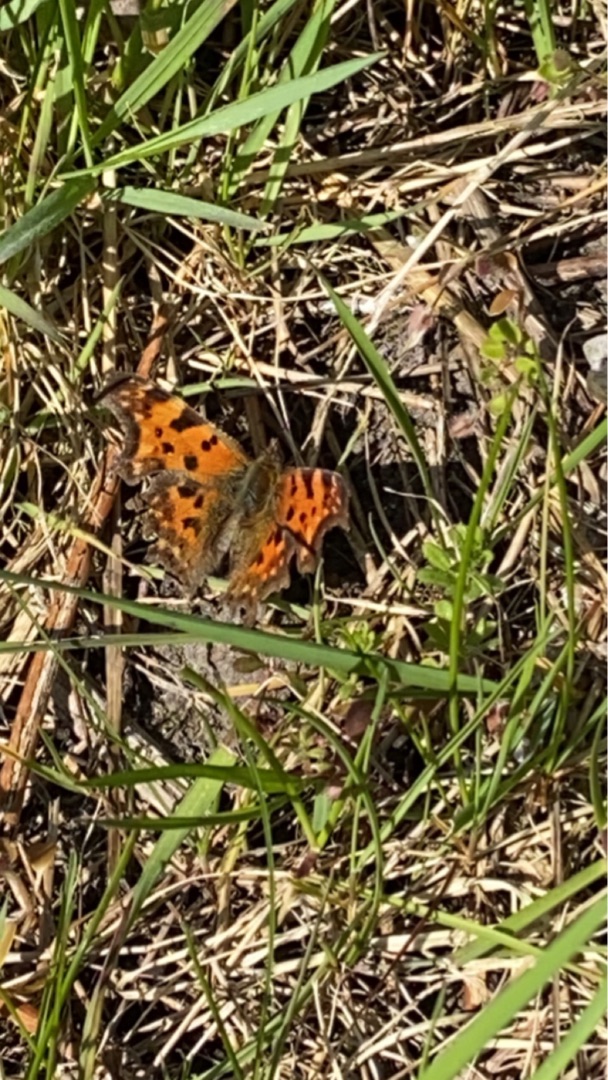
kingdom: Animalia
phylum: Arthropoda
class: Insecta
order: Lepidoptera
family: Nymphalidae
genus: Polygonia
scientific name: Polygonia c-album
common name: Det hvide C
